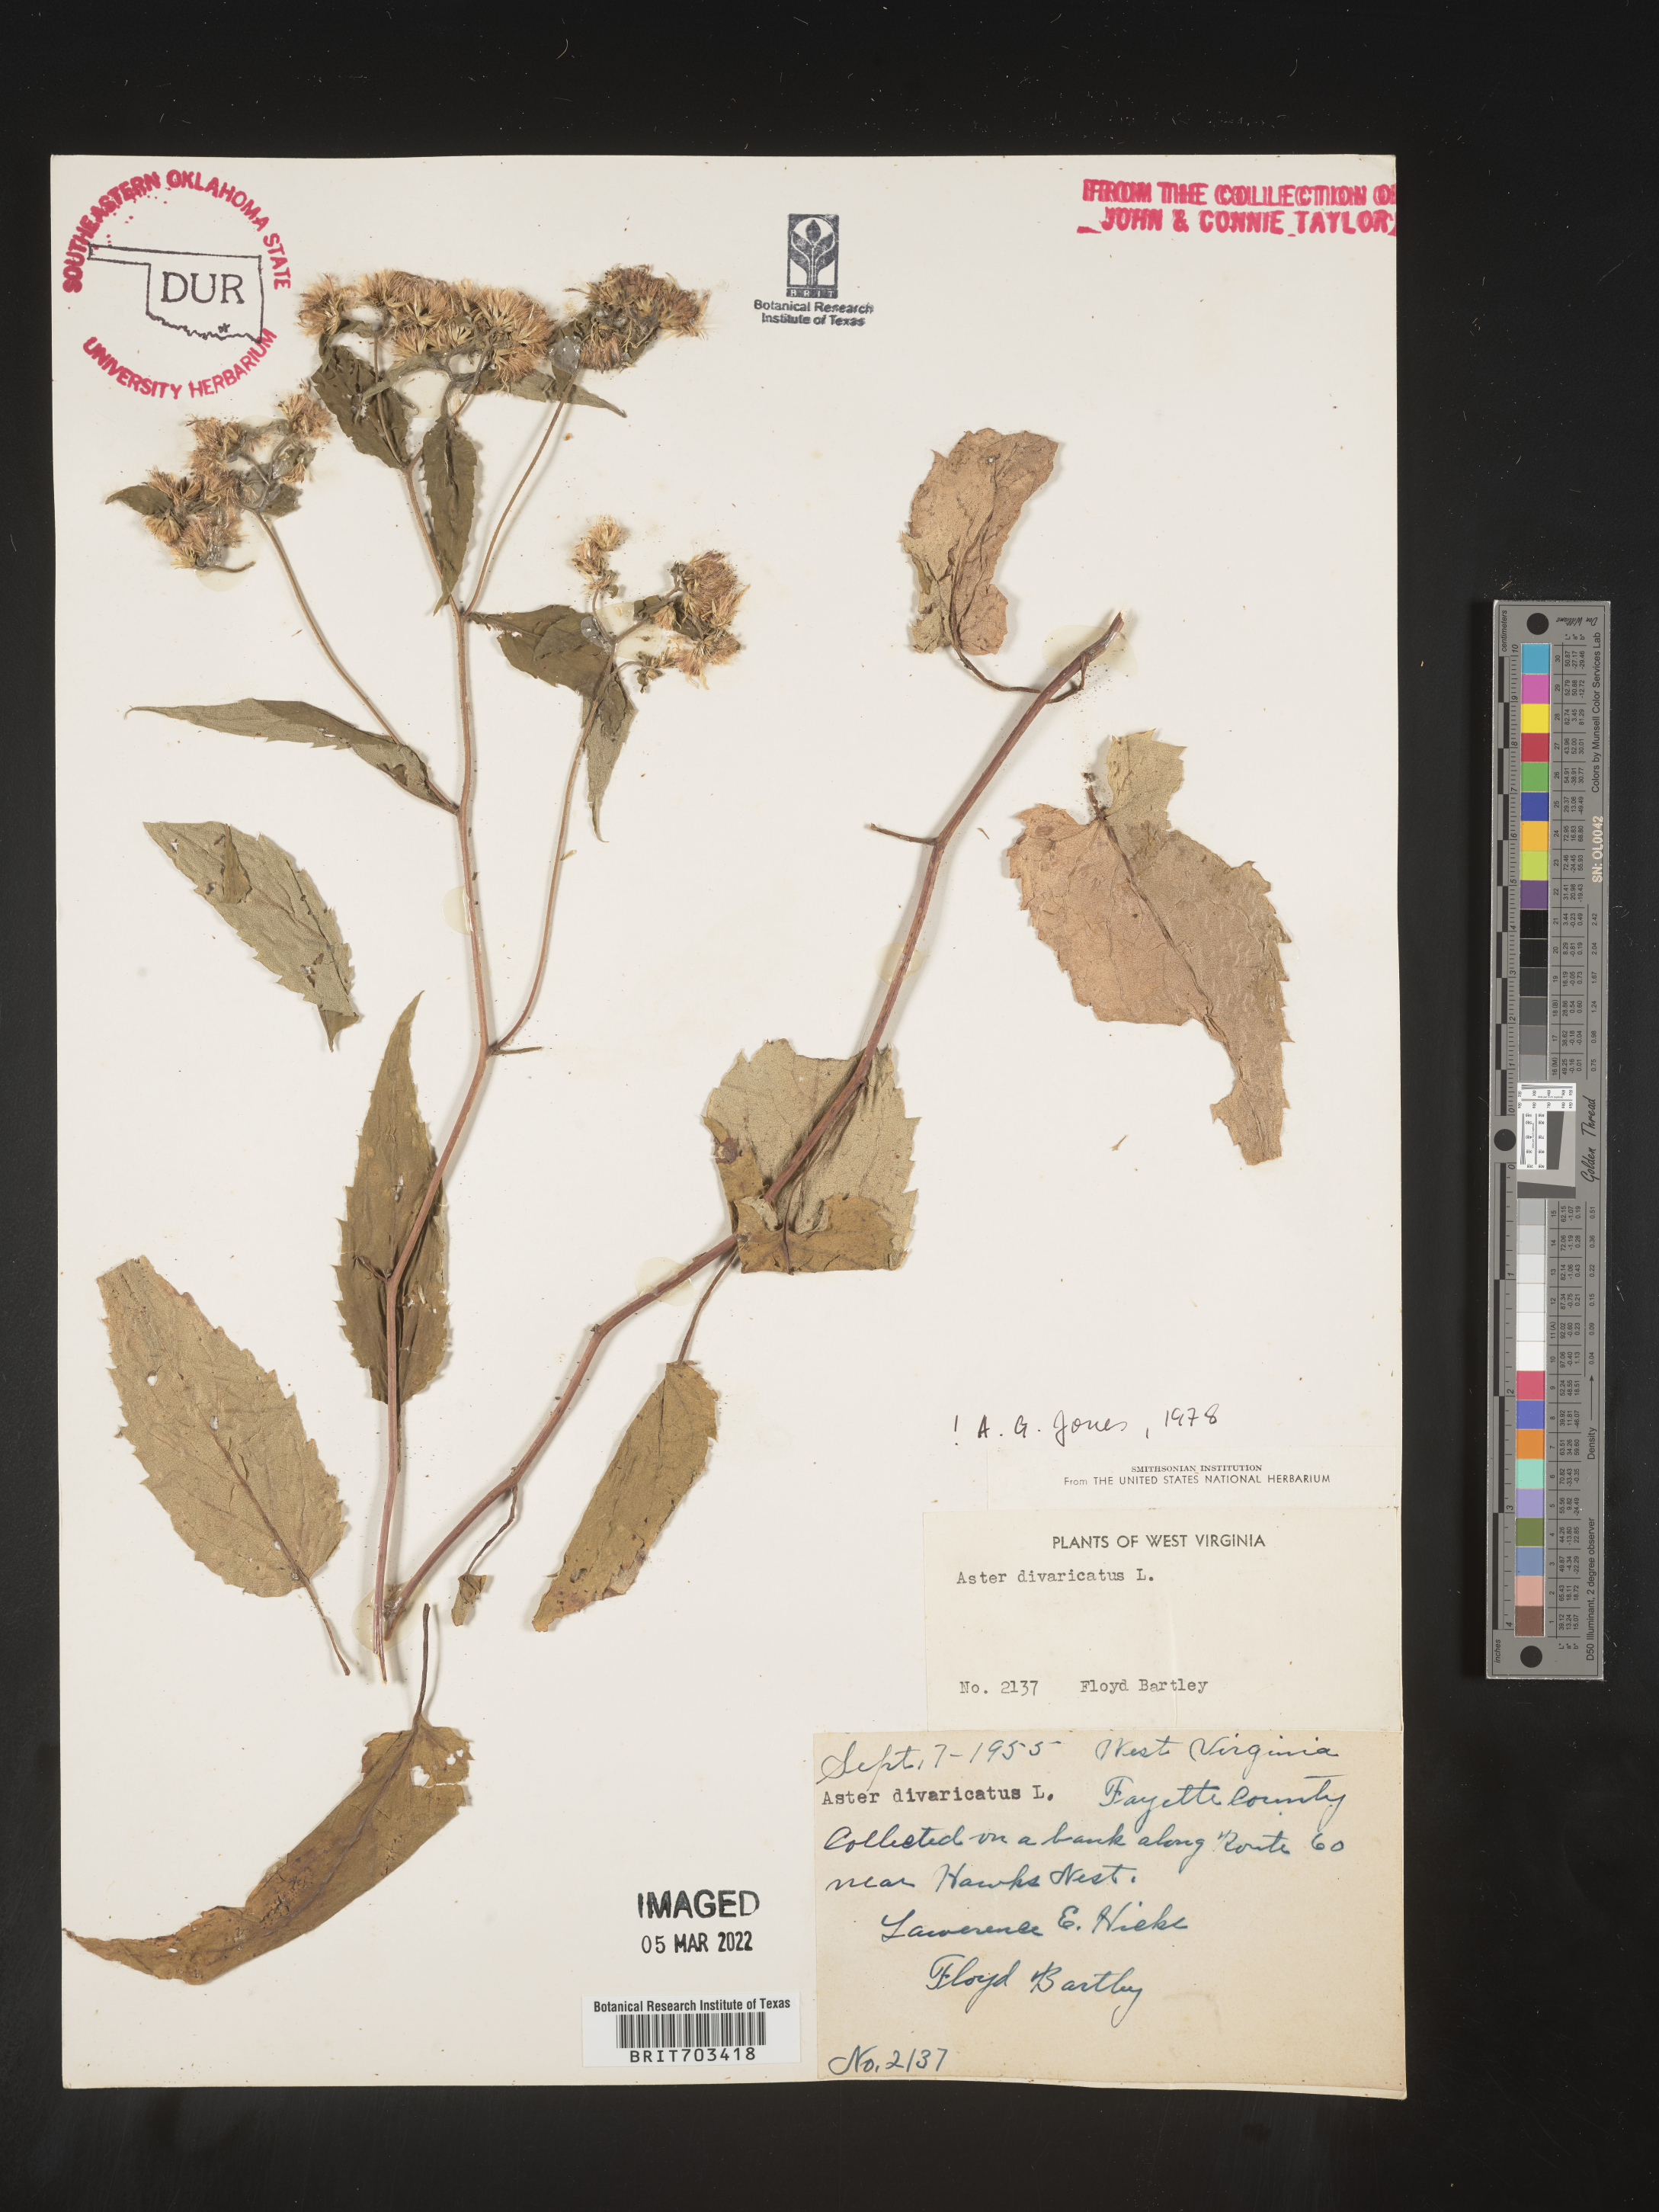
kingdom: Plantae
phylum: Tracheophyta
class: Magnoliopsida
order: Asterales
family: Asteraceae
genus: Eurybia
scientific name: Eurybia divaricata
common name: White wood aster
